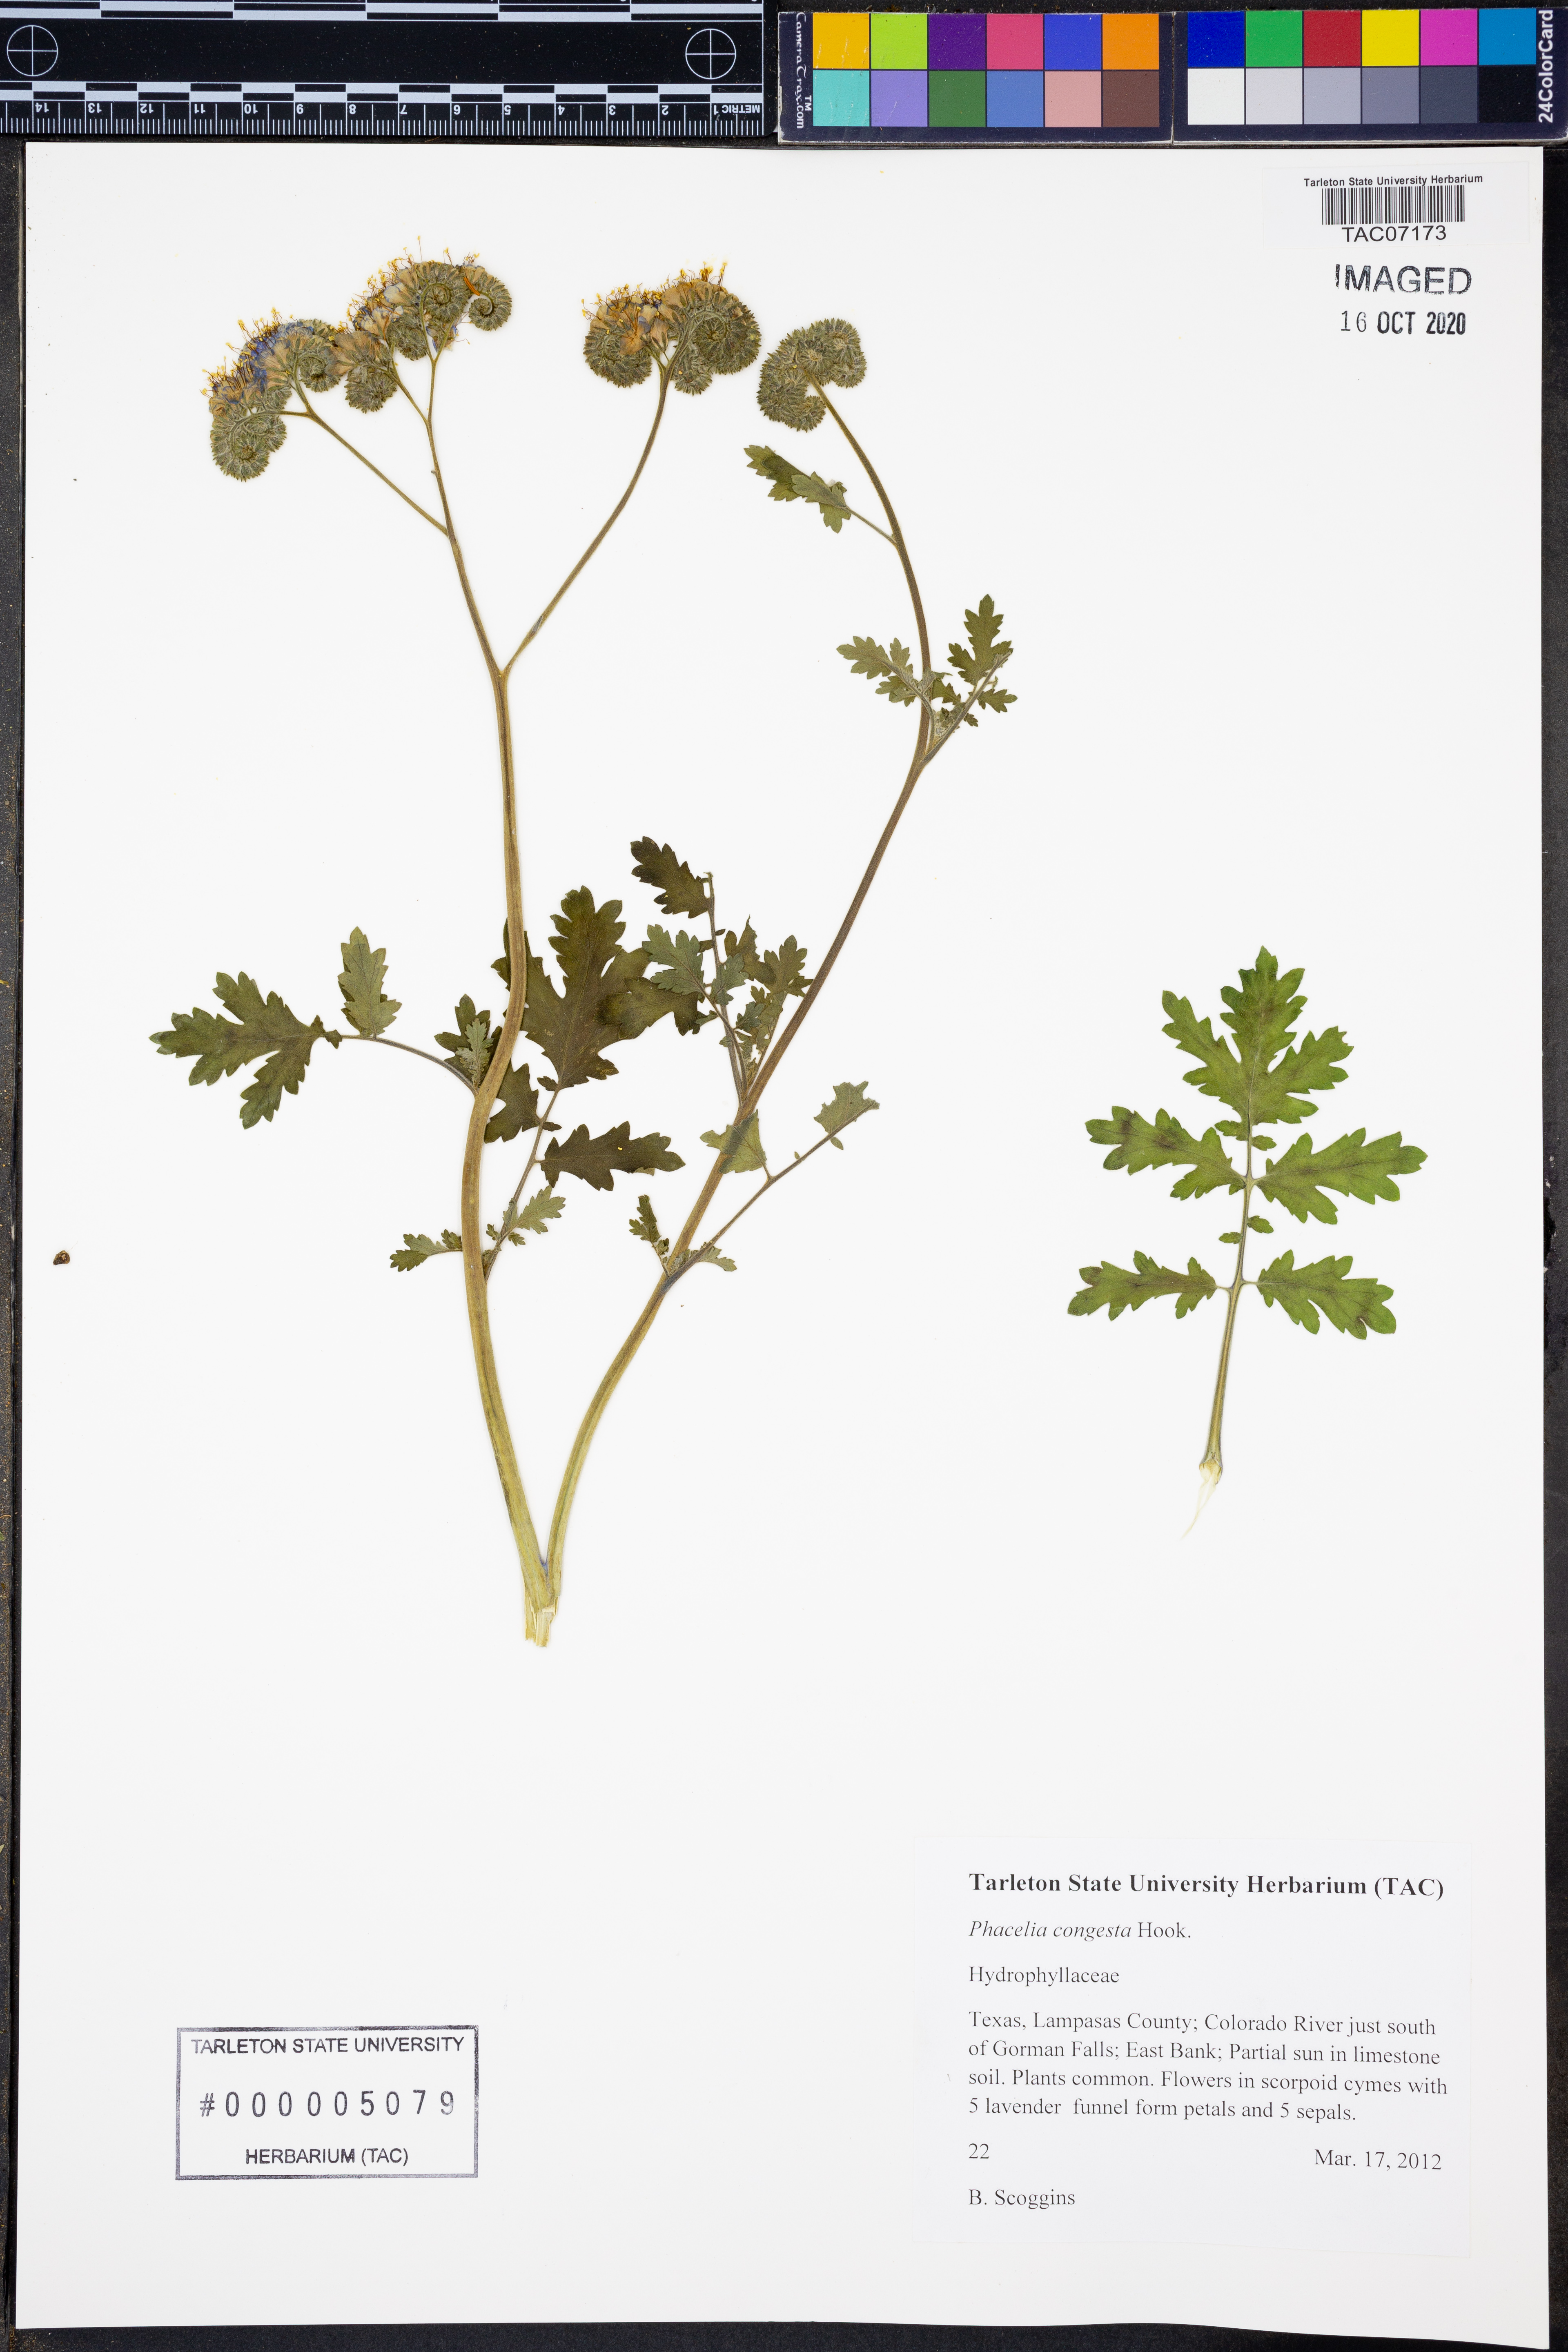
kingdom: Plantae
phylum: Tracheophyta
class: Magnoliopsida
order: Boraginales
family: Hydrophyllaceae
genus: Phacelia
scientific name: Phacelia congesta
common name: Blue curls
